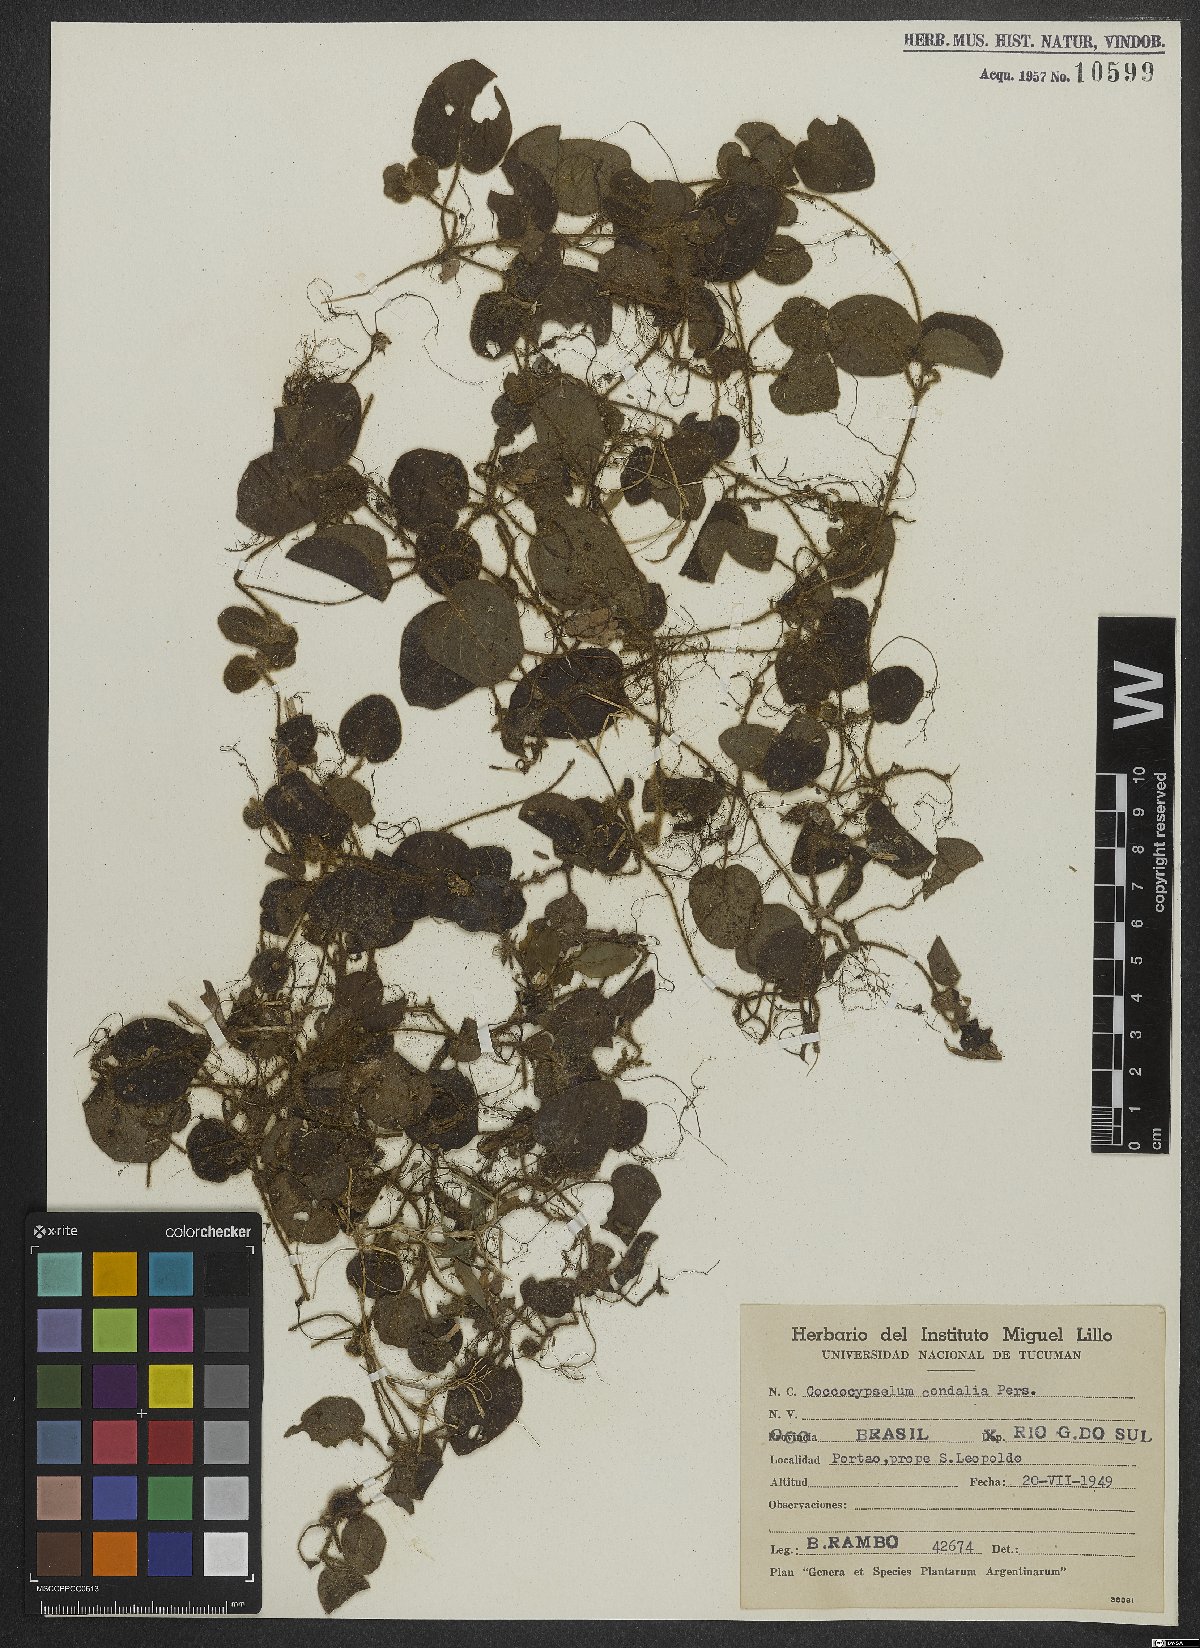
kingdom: Plantae
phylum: Tracheophyta
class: Magnoliopsida
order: Gentianales
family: Rubiaceae
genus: Coccocypselum
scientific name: Coccocypselum condalia
